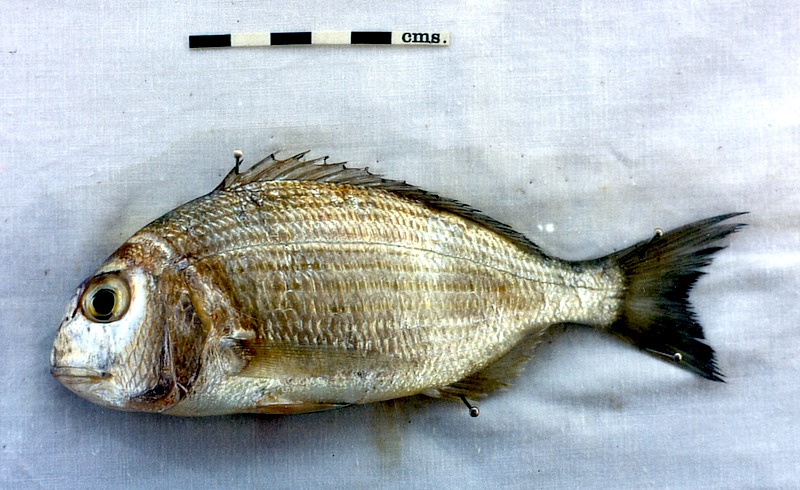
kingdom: Animalia
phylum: Chordata
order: Perciformes
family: Sparidae
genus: Rhabdosargus
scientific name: Rhabdosargus sarba
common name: Goldlined seabream
